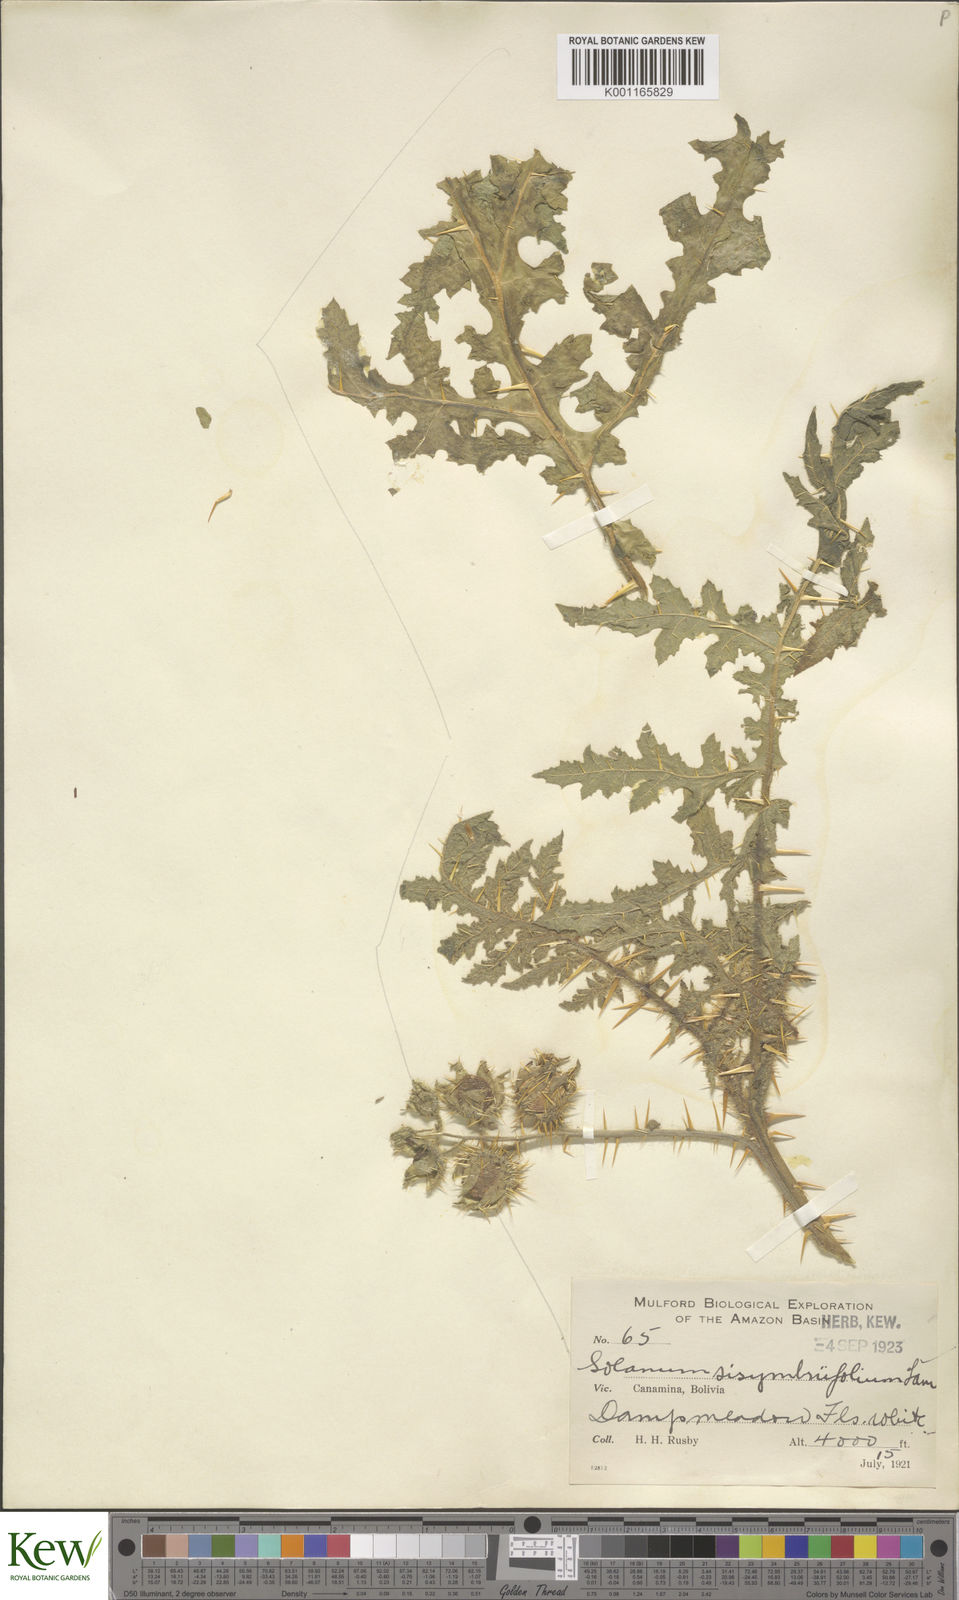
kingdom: Plantae
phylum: Tracheophyta
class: Magnoliopsida
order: Solanales
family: Solanaceae
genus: Solanum
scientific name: Solanum sisymbriifolium
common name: Red buffalo-bur
